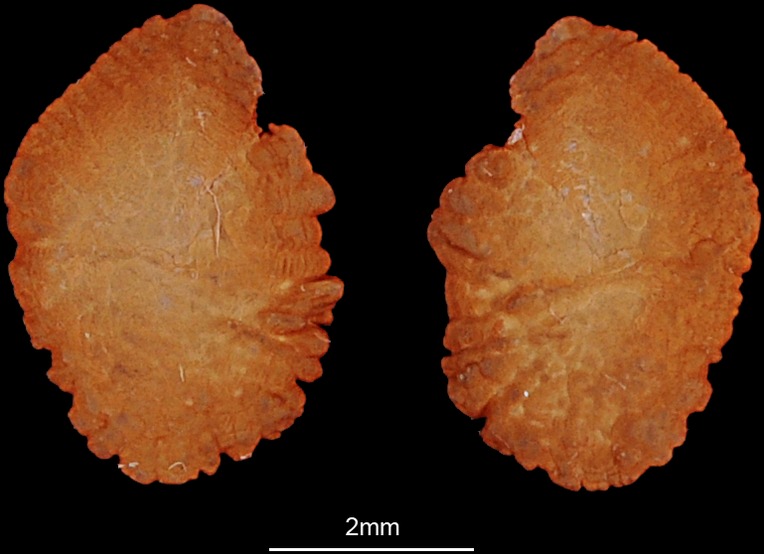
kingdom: Animalia
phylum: Chordata
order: Perciformes
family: Monodactylidae
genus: Monodactylus
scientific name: Monodactylus argenteus
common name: Silver moony
